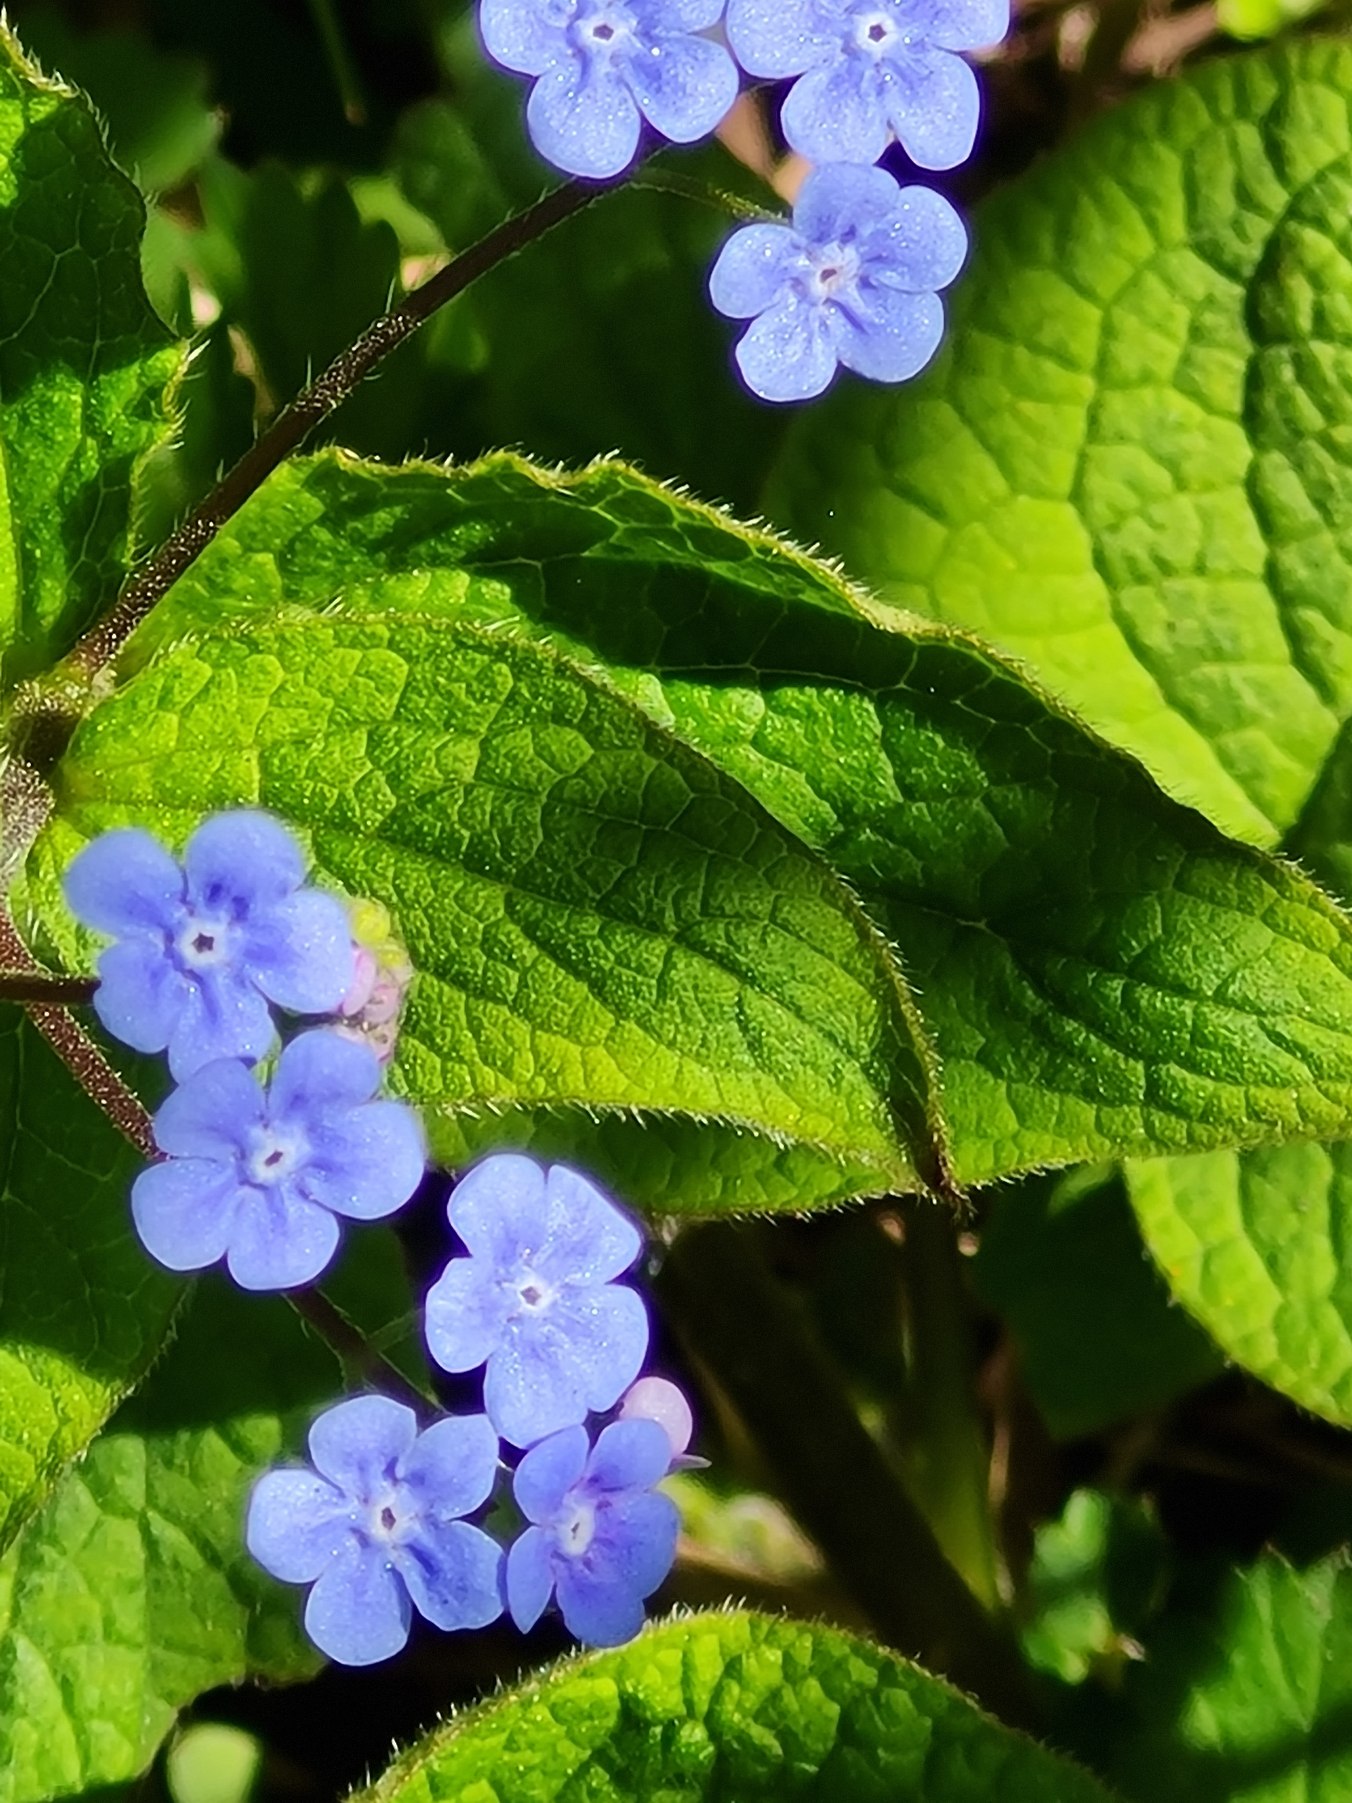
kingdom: Plantae
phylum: Tracheophyta
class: Magnoliopsida
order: Boraginales
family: Boraginaceae
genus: Brunnera
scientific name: Brunnera macrophylla
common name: Kærmindesøster
